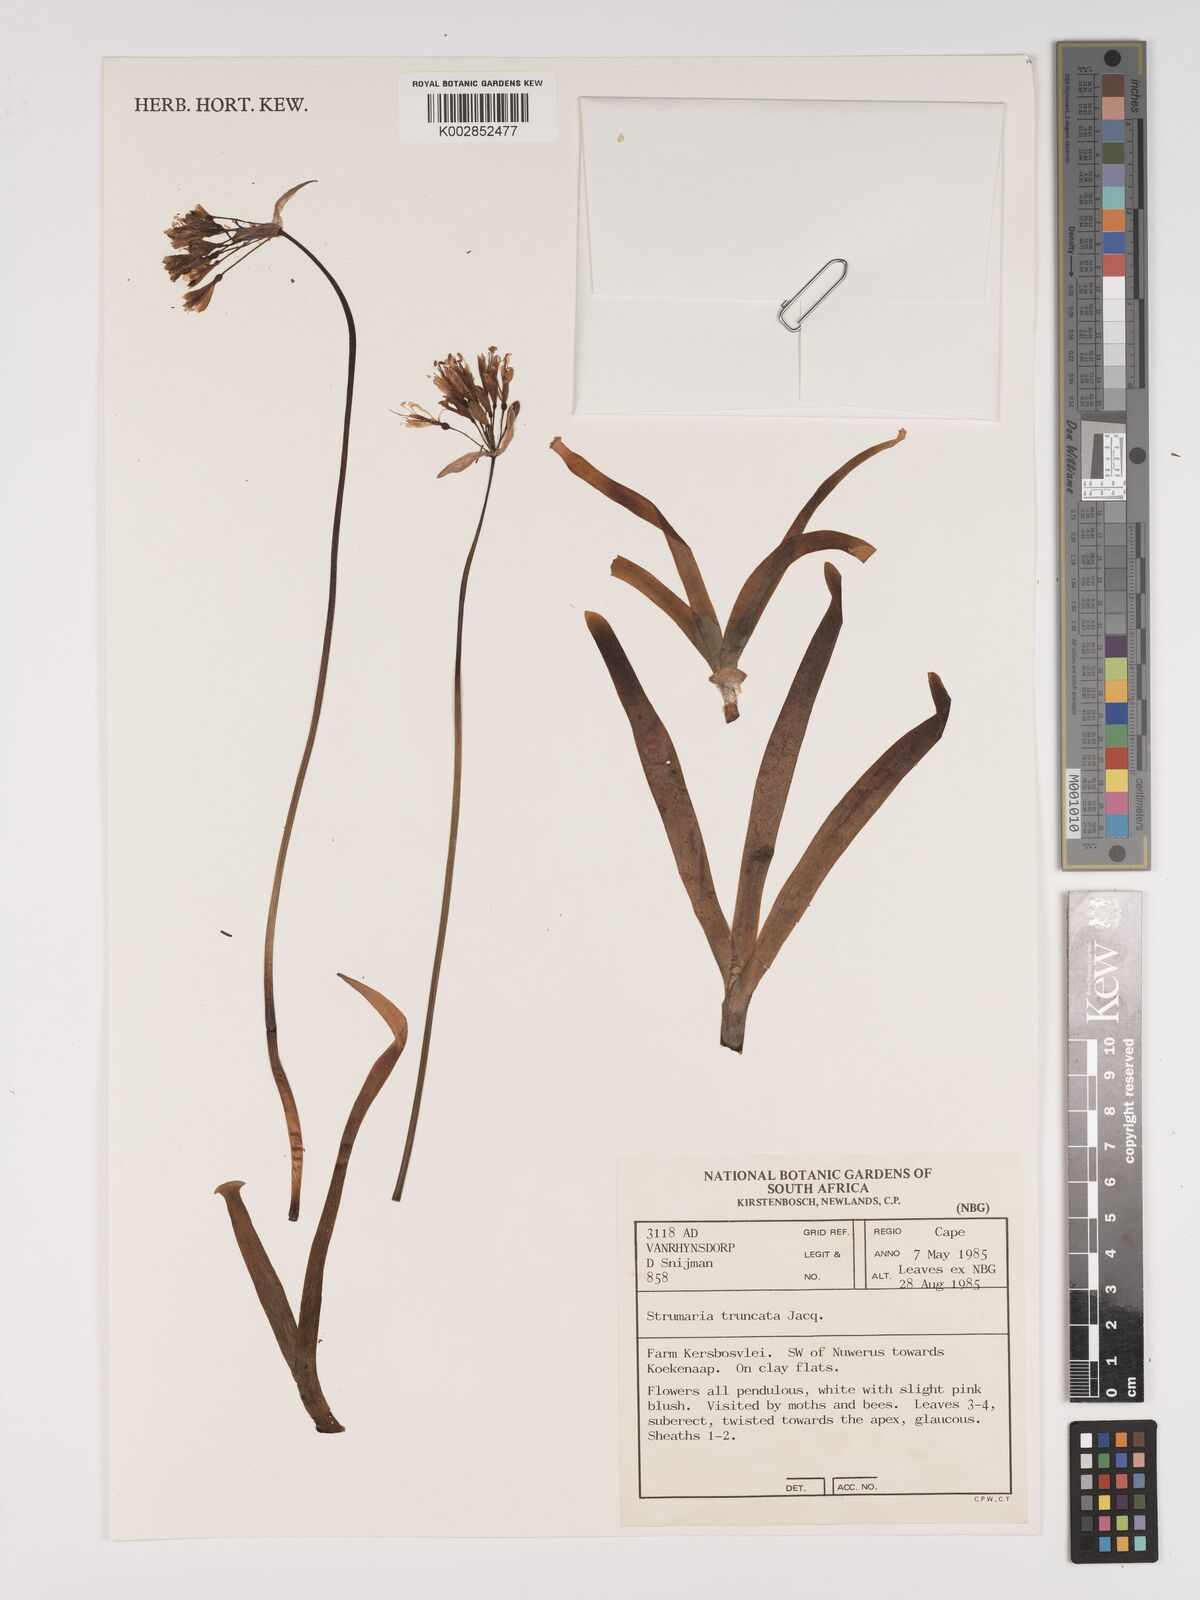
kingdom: Plantae
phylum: Tracheophyta
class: Liliopsida
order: Asparagales
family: Amaryllidaceae
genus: Strumaria
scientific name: Strumaria truncata
